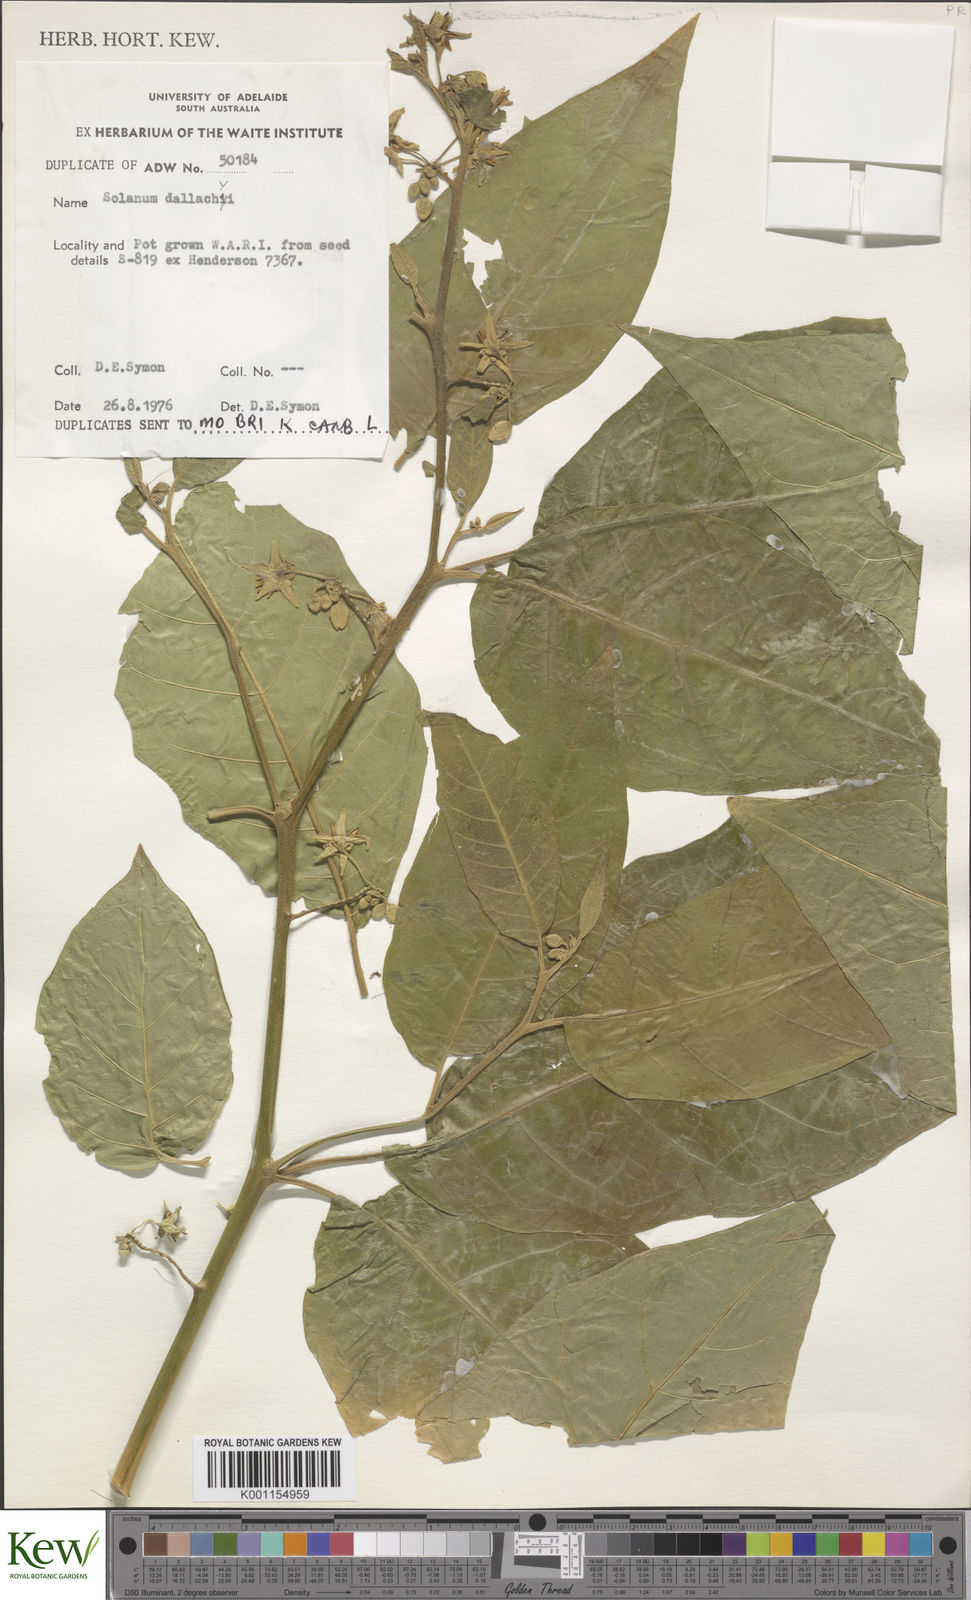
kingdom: Plantae
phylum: Tracheophyta
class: Magnoliopsida
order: Solanales
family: Solanaceae
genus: Solanum
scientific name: Solanum magnifolium
